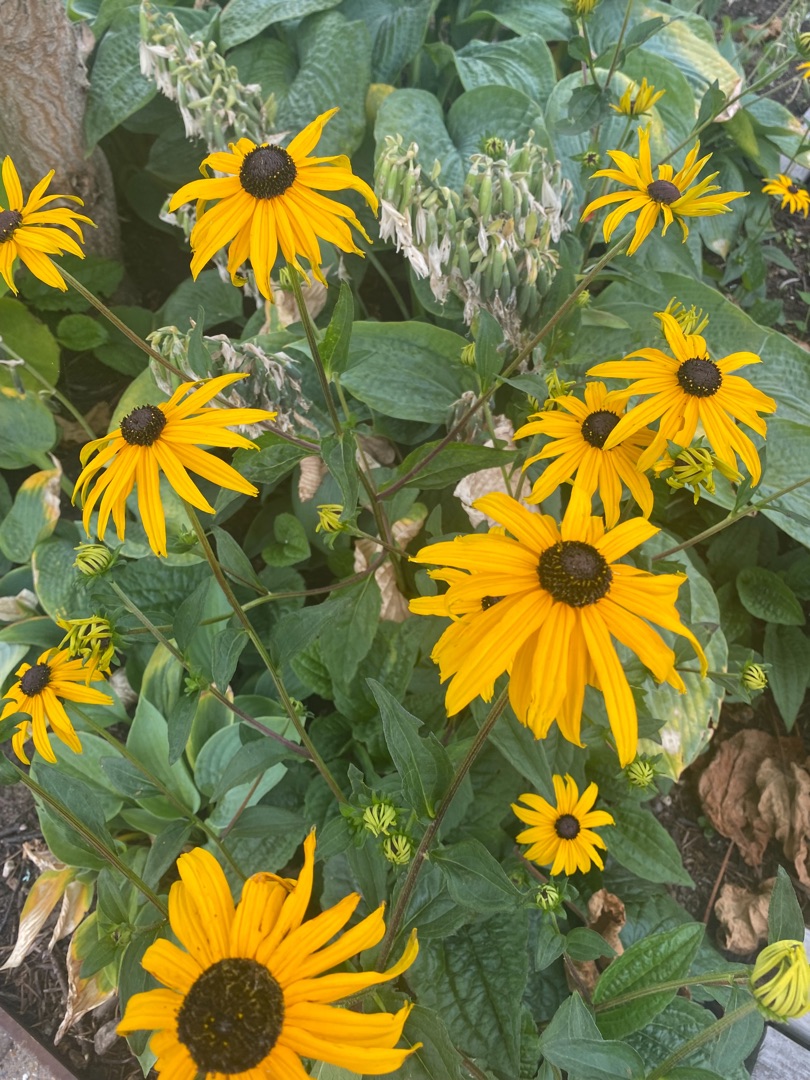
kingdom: Plantae
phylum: Tracheophyta
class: Magnoliopsida
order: Asterales
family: Asteraceae
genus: Rudbeckia
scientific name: Rudbeckia hirta
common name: Håret solhat
